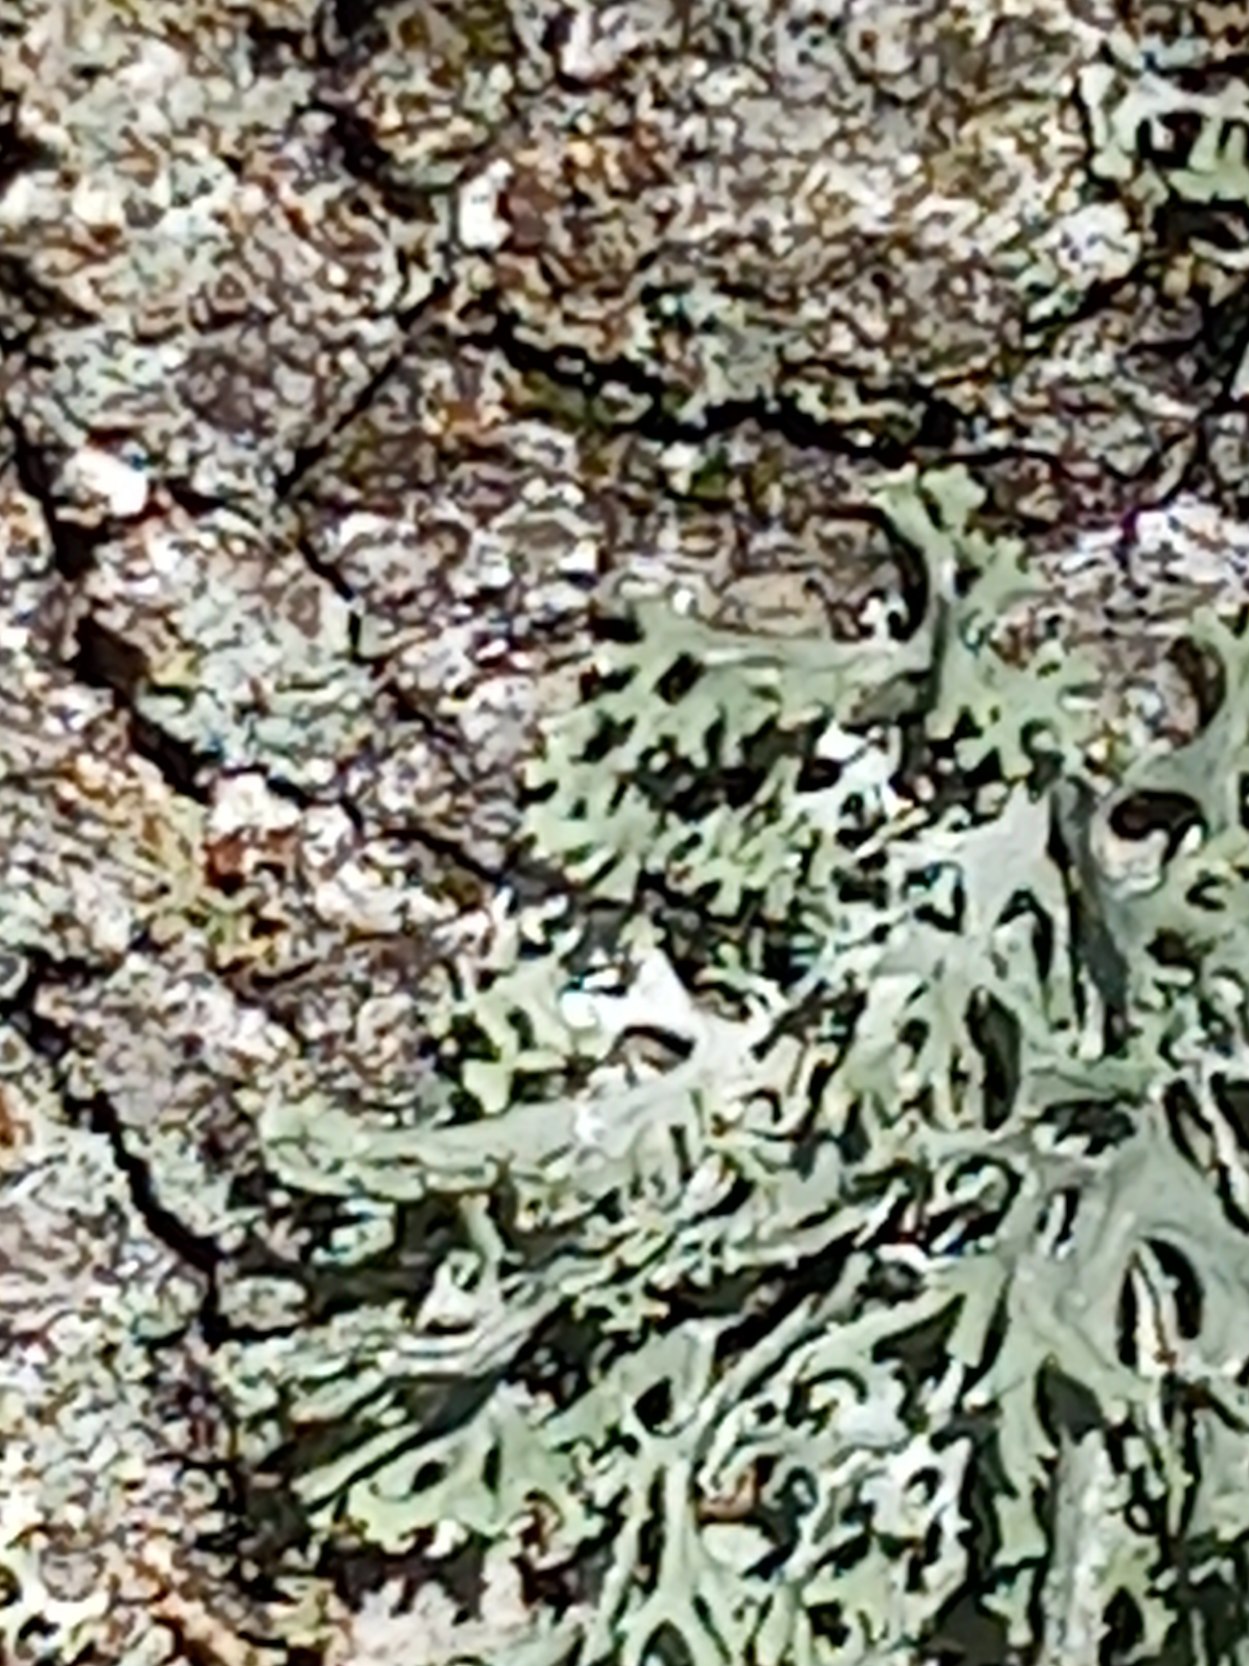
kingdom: Fungi
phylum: Ascomycota
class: Lecanoromycetes
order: Lecanorales
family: Parmeliaceae
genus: Evernia
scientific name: Evernia prunastri
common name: Almindelig slåenlav
